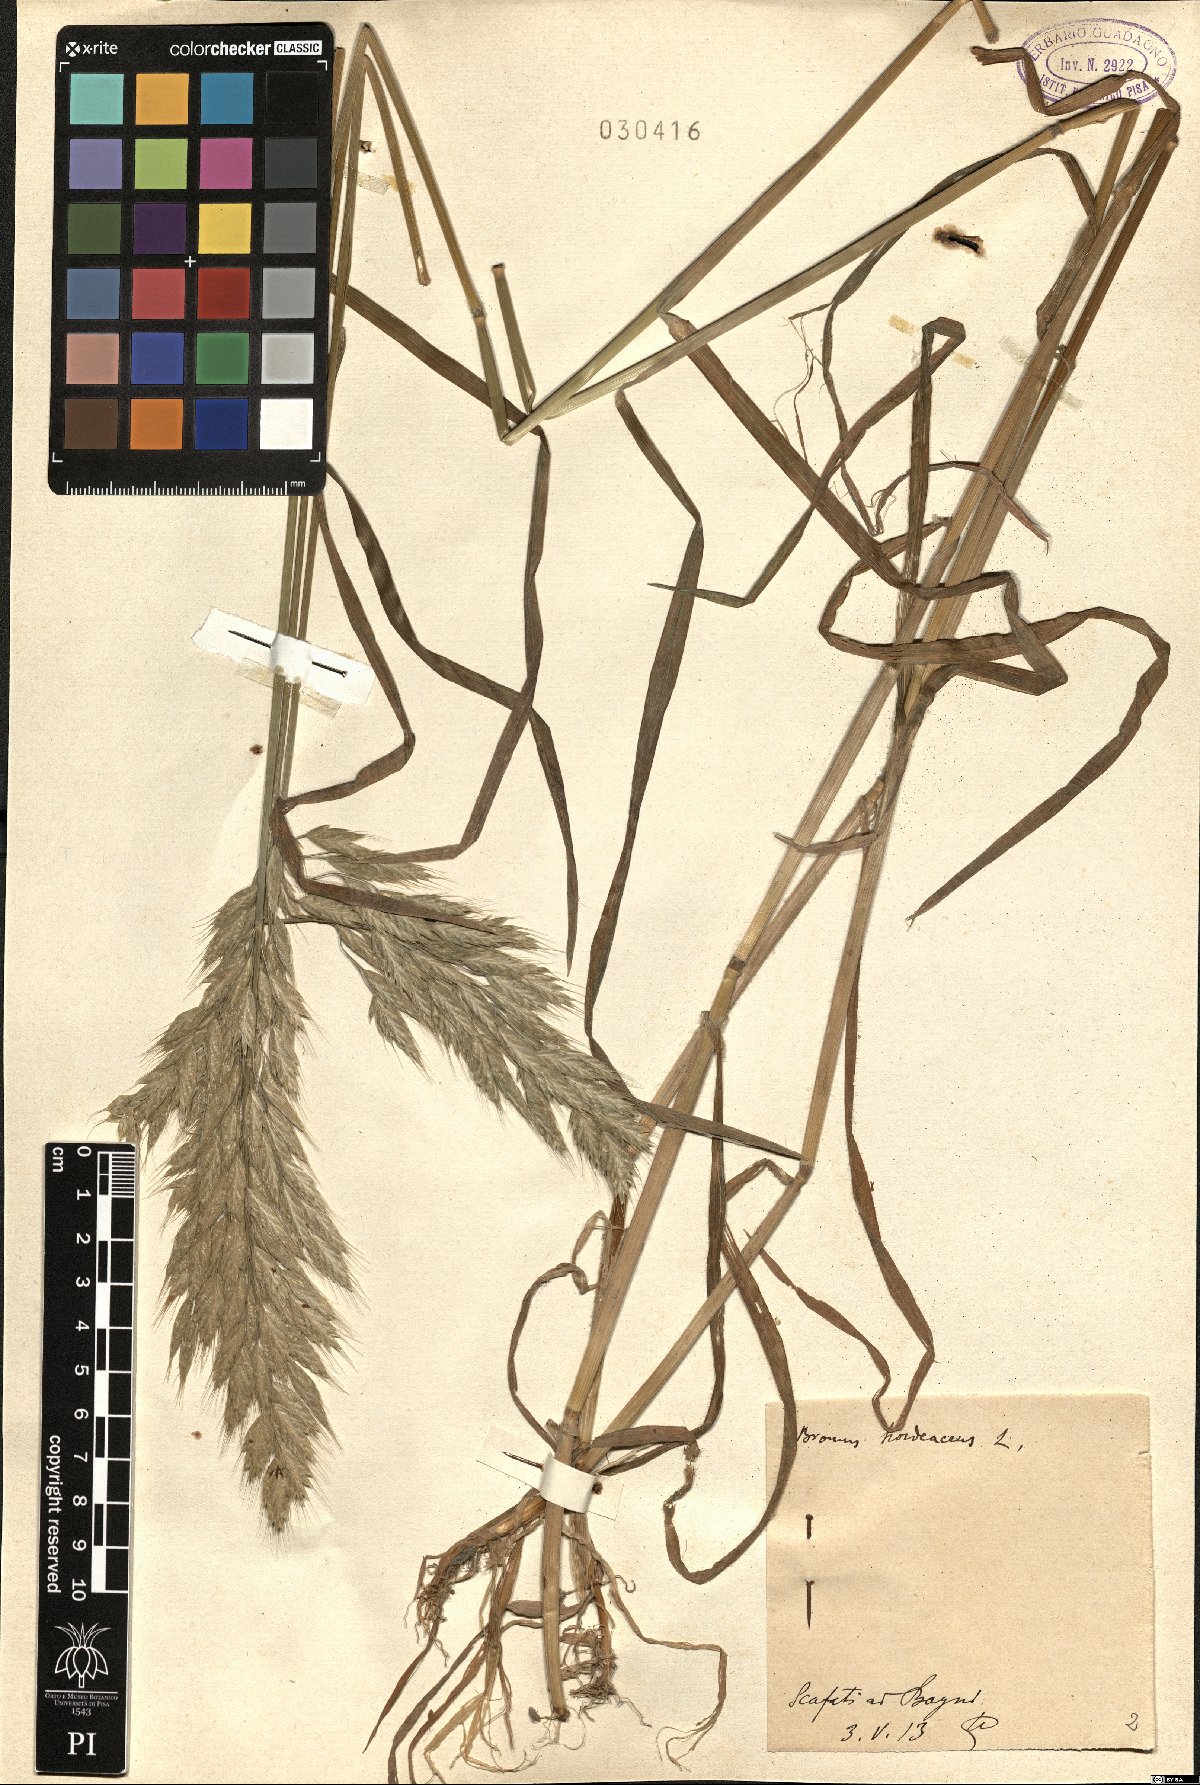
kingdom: Plantae
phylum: Tracheophyta
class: Liliopsida
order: Poales
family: Poaceae
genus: Bromus
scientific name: Bromus hordeaceus
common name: Soft brome
